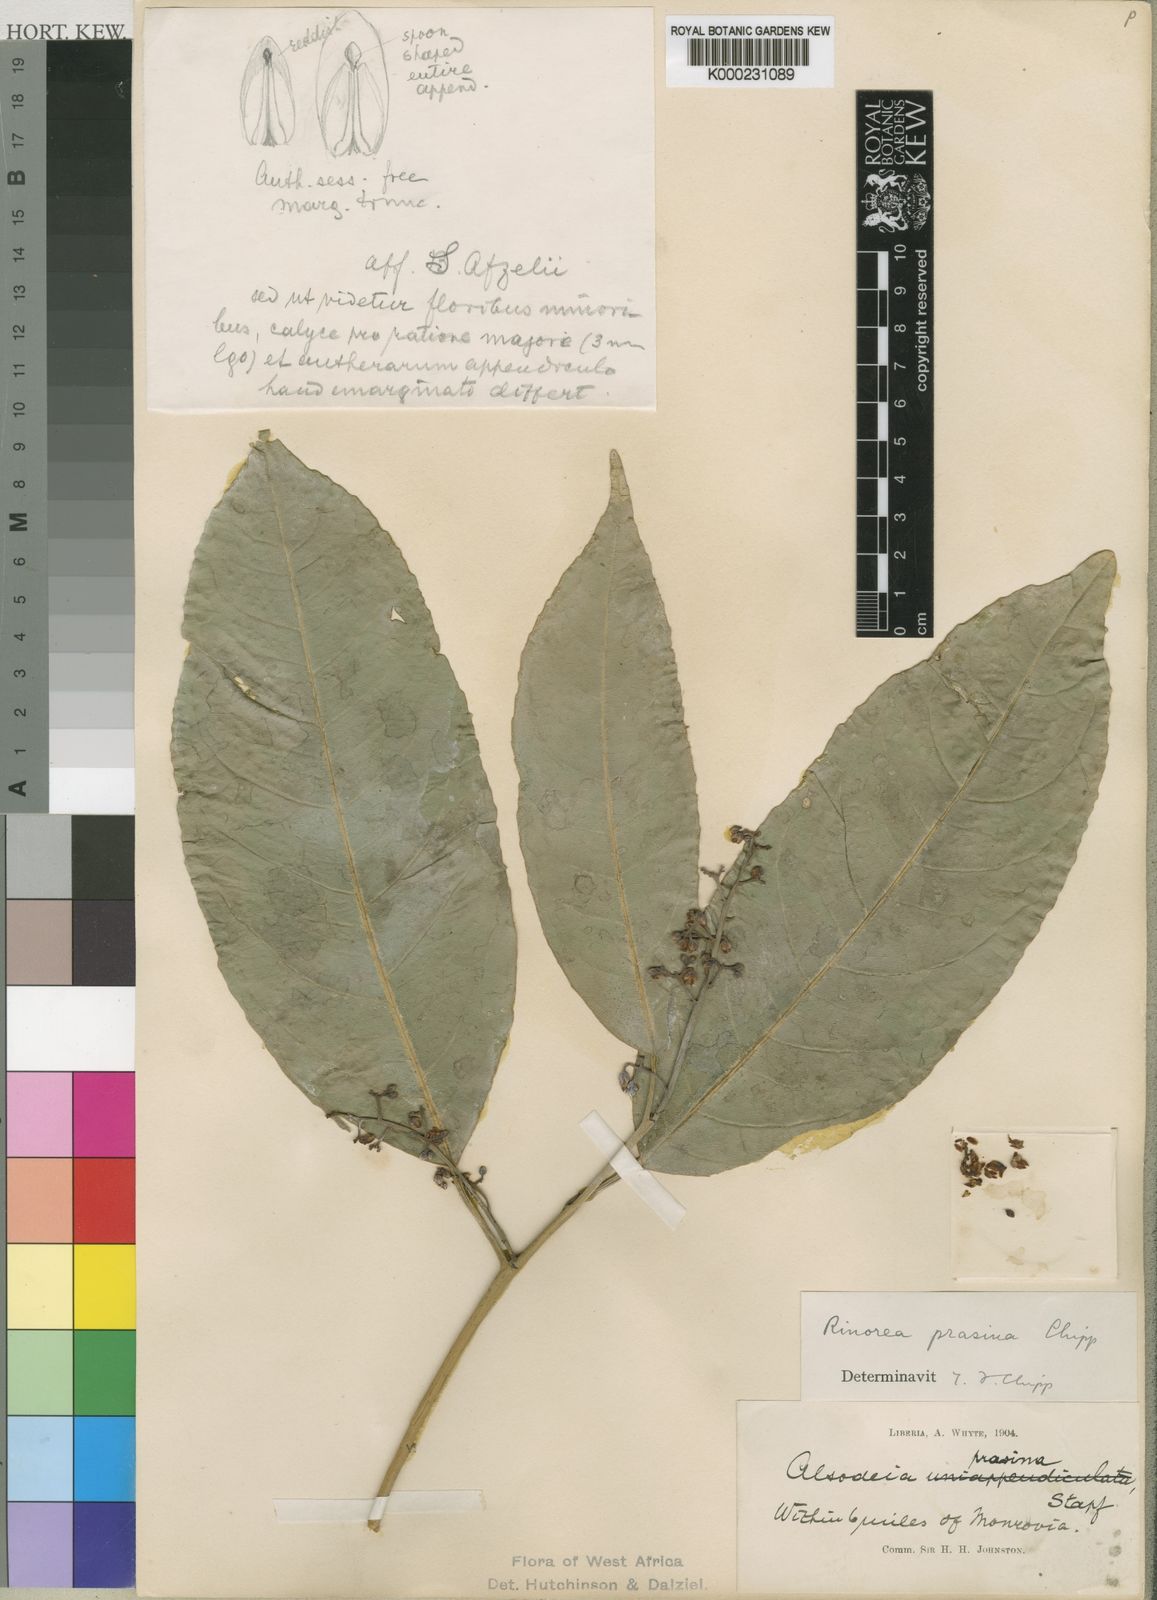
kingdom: Plantae
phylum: Tracheophyta
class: Magnoliopsida
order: Malpighiales
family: Violaceae
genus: Rinorea
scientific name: Rinorea prasina
